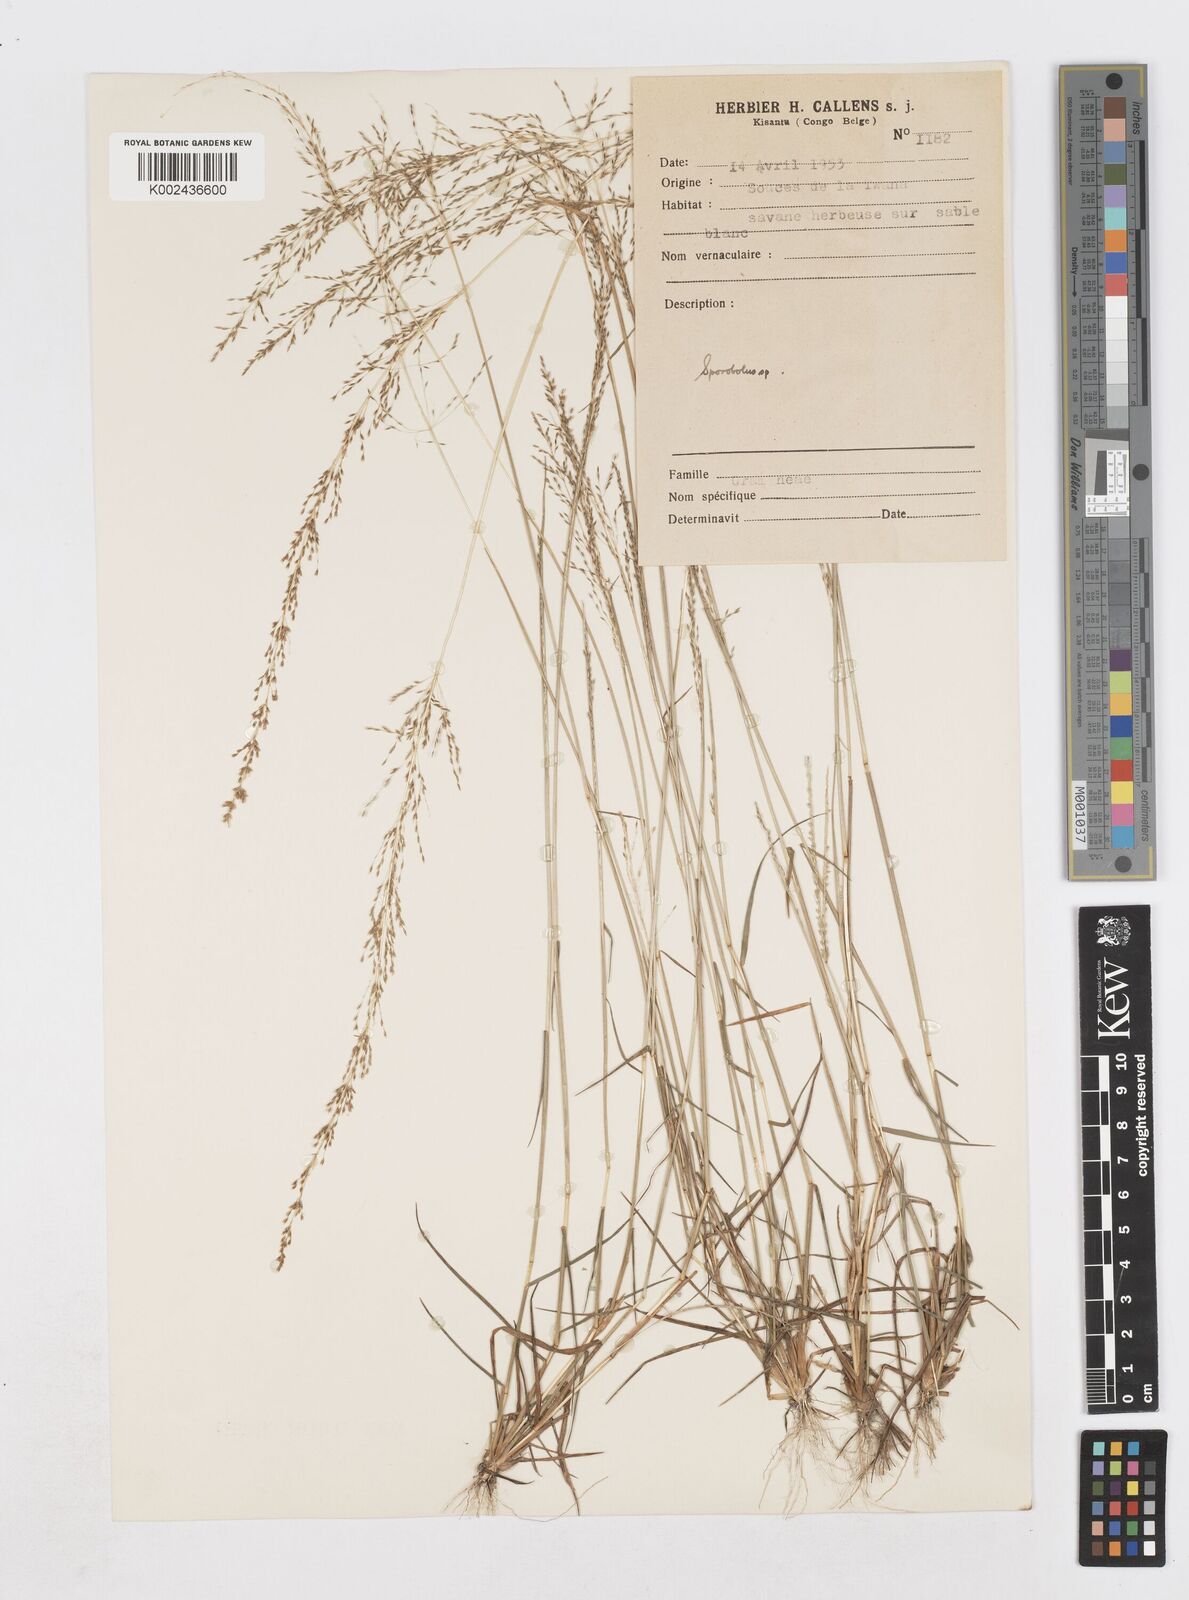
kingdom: Plantae
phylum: Tracheophyta
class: Liliopsida
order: Poales
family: Poaceae
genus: Sporobolus
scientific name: Sporobolus paniculatus
